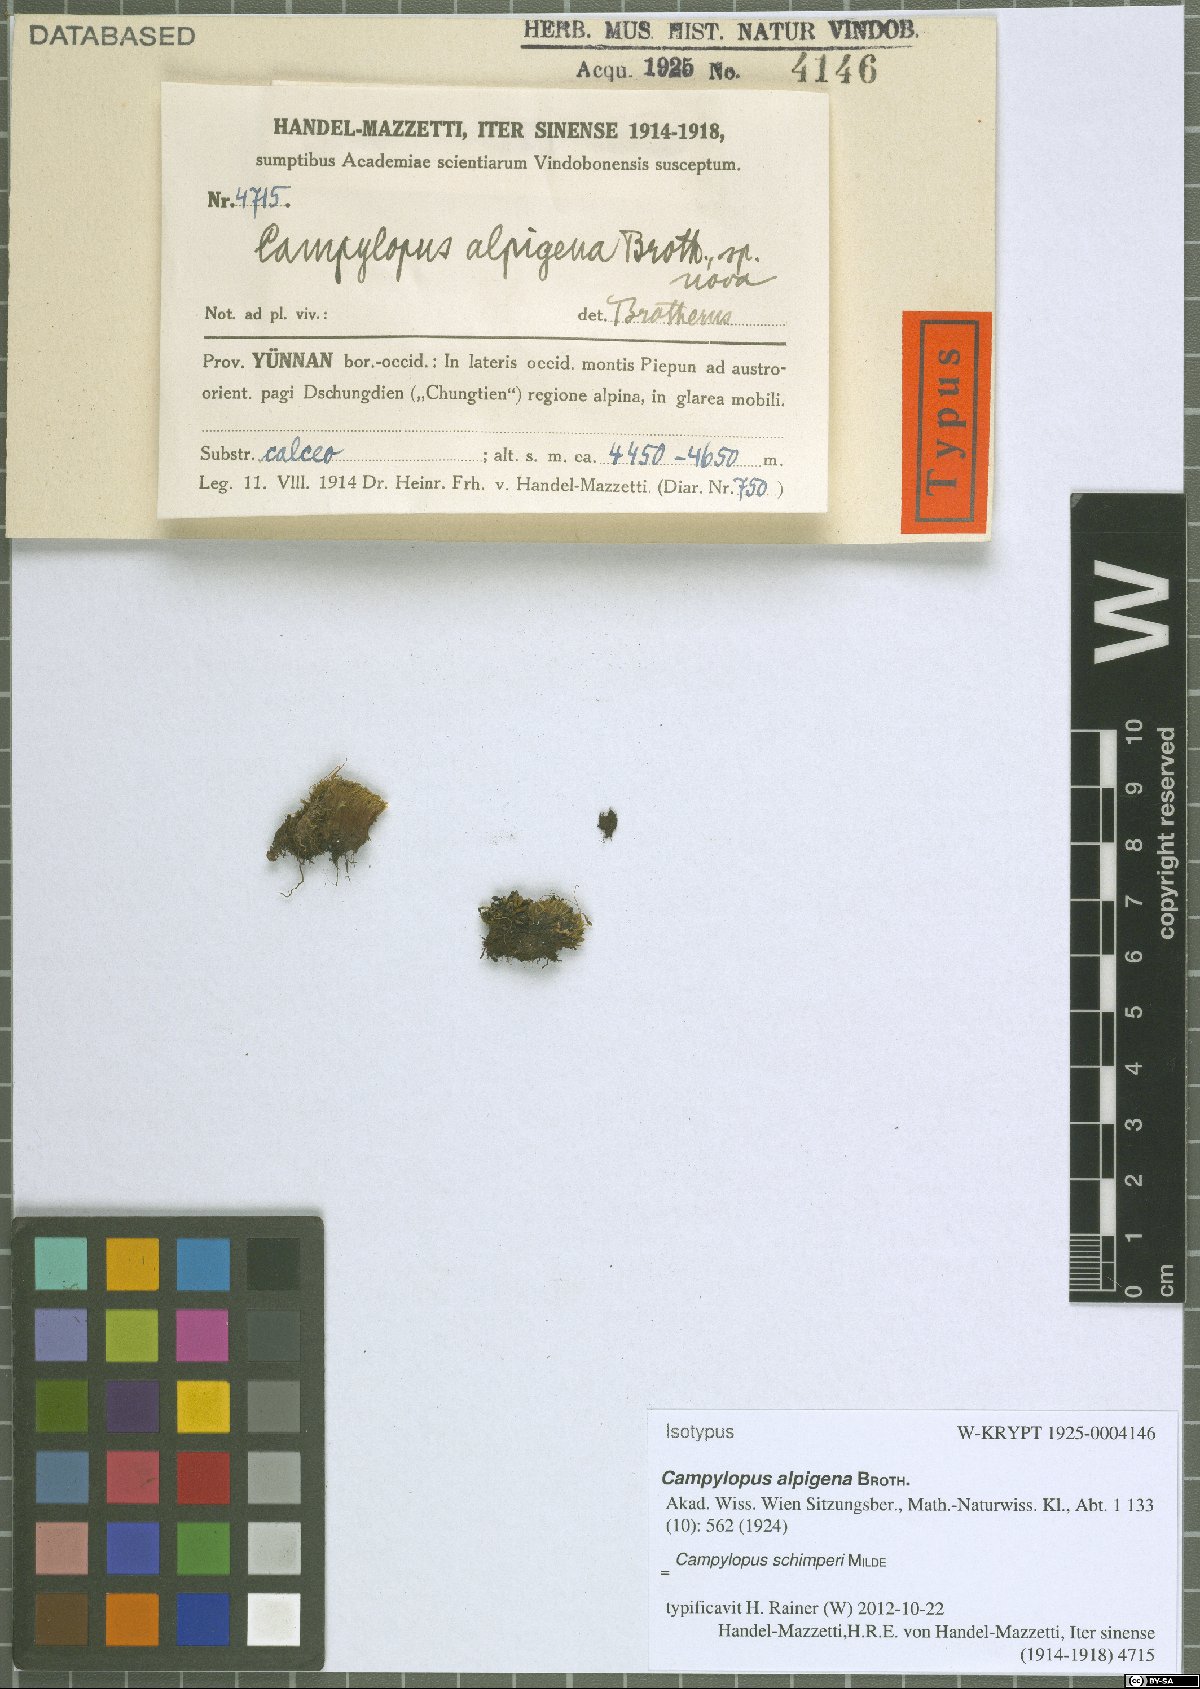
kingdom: Plantae
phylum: Bryophyta
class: Bryopsida
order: Dicranales
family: Leucobryaceae
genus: Campylopus
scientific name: Campylopus schimperi
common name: Schimper's swan-neck moss
